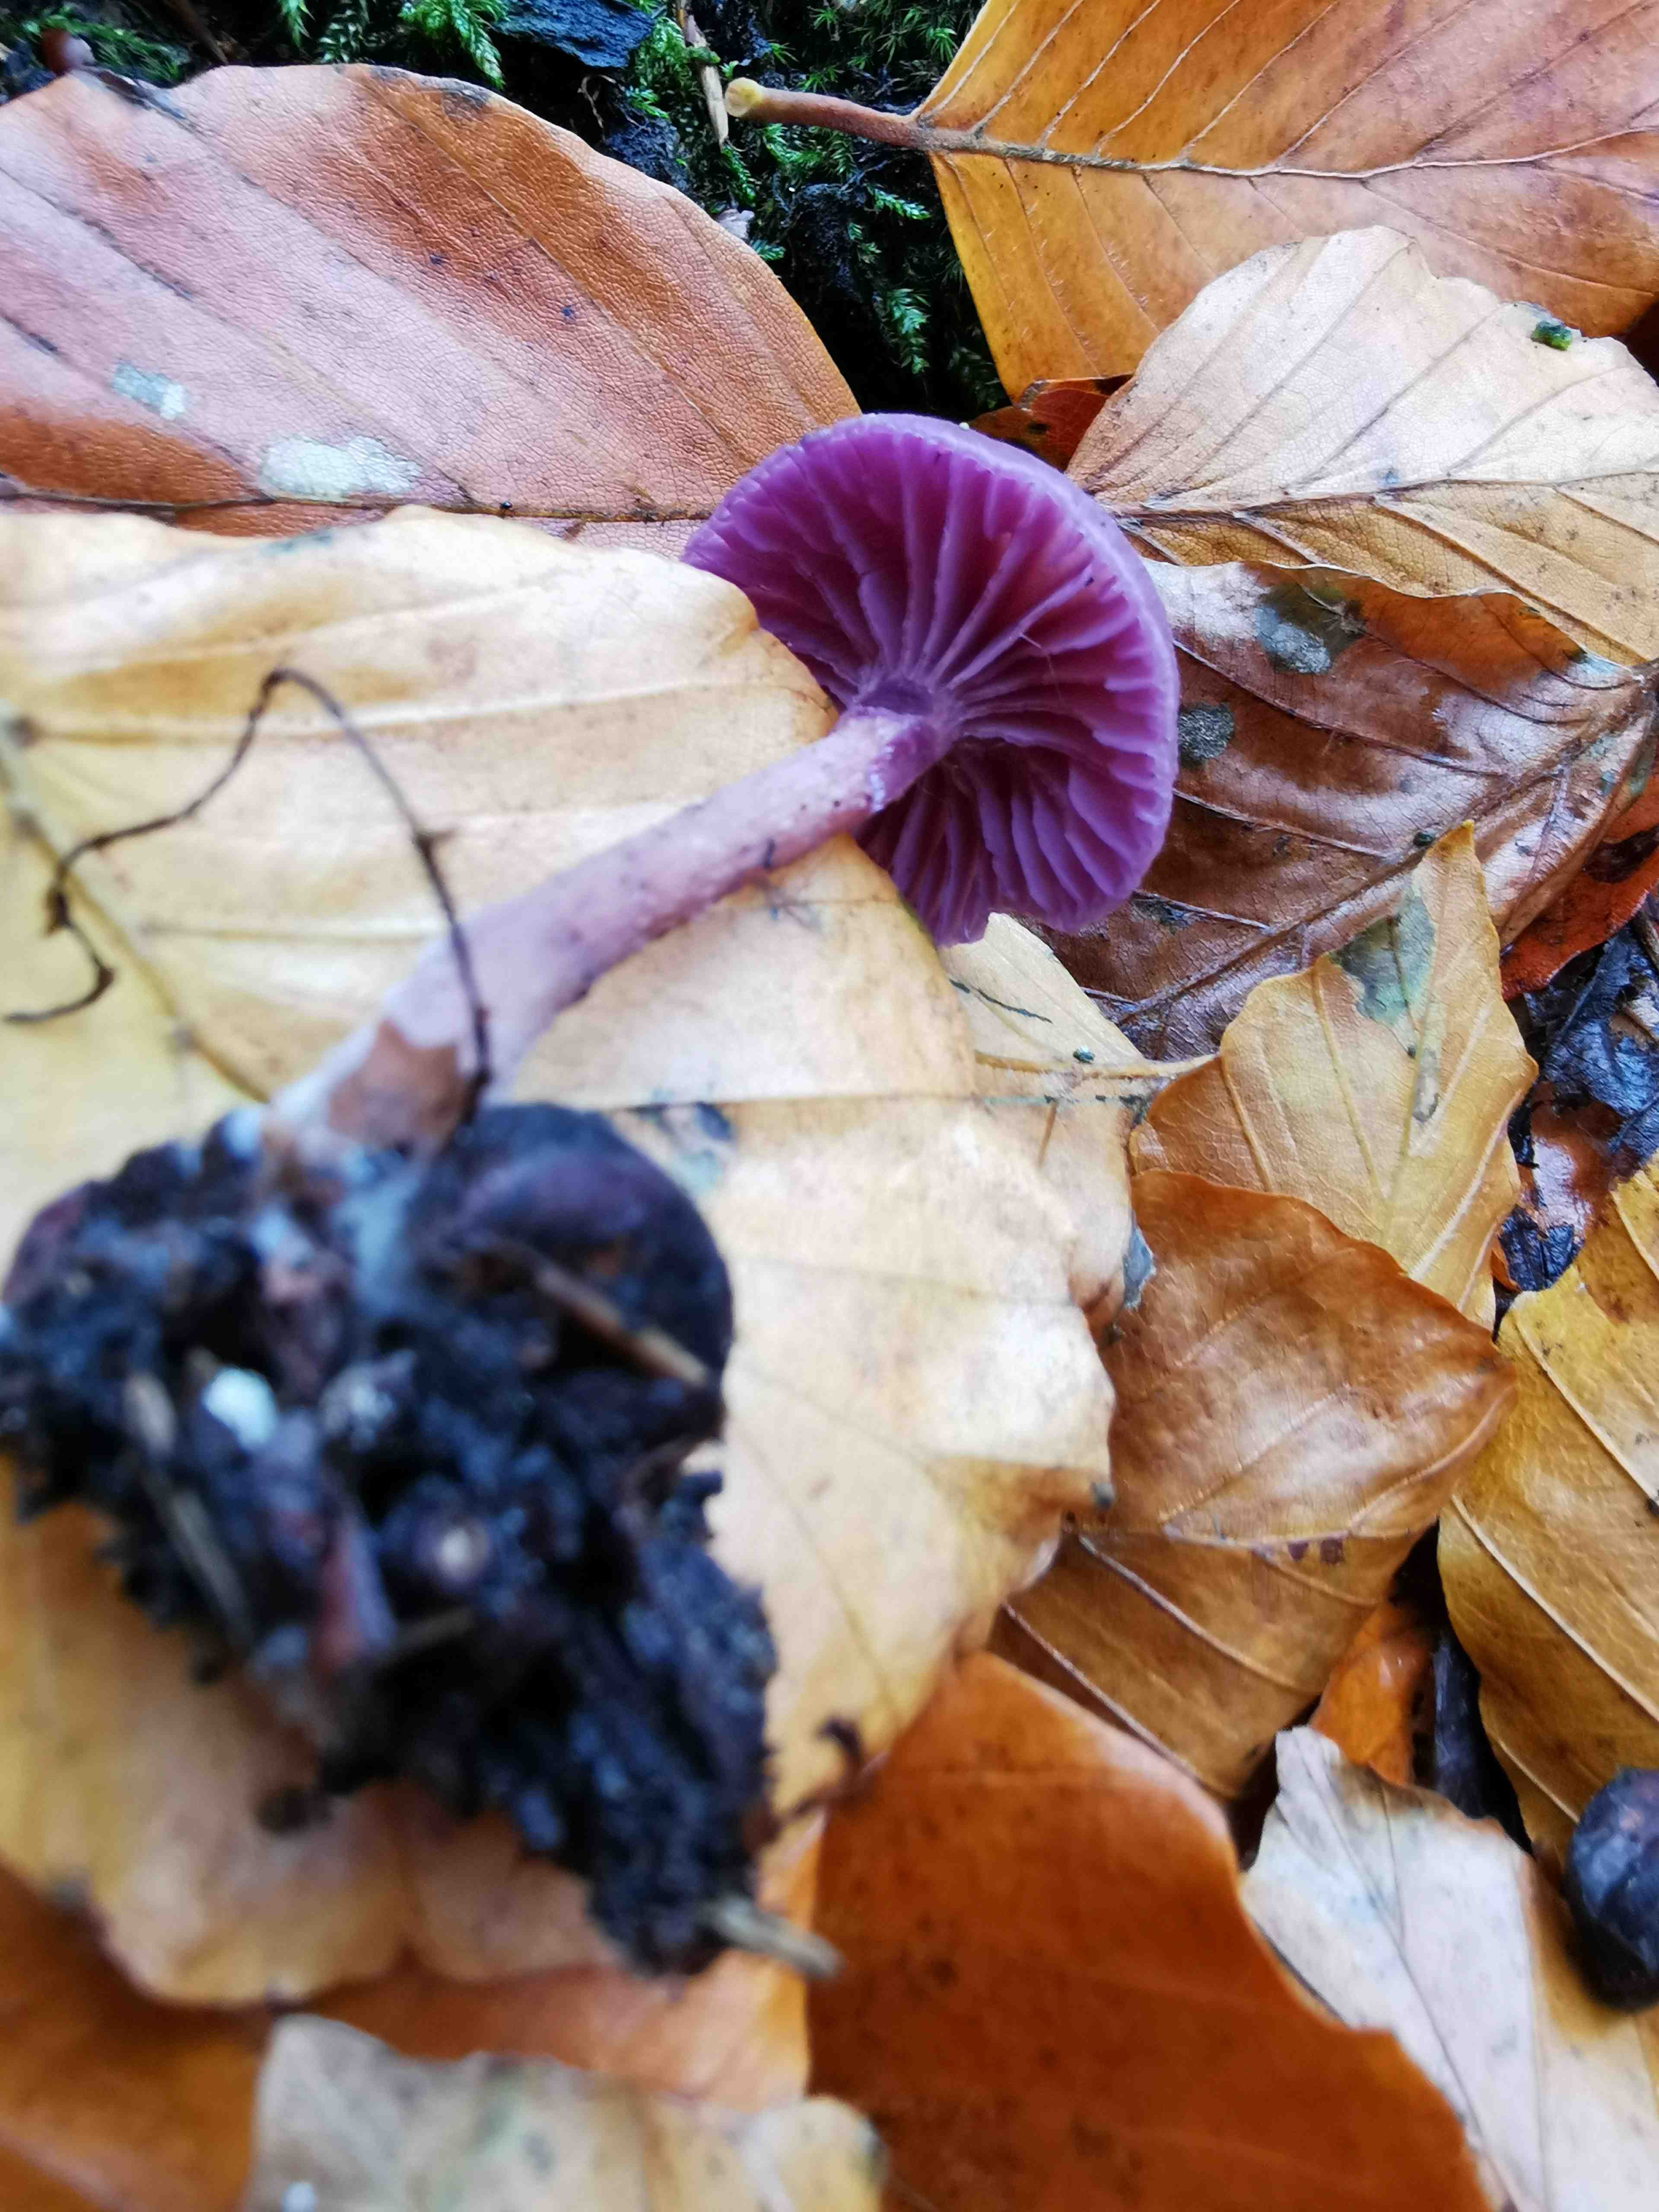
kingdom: Fungi
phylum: Basidiomycota
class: Agaricomycetes
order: Agaricales
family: Hydnangiaceae
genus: Laccaria
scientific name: Laccaria amethystina
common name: violet ametysthat
